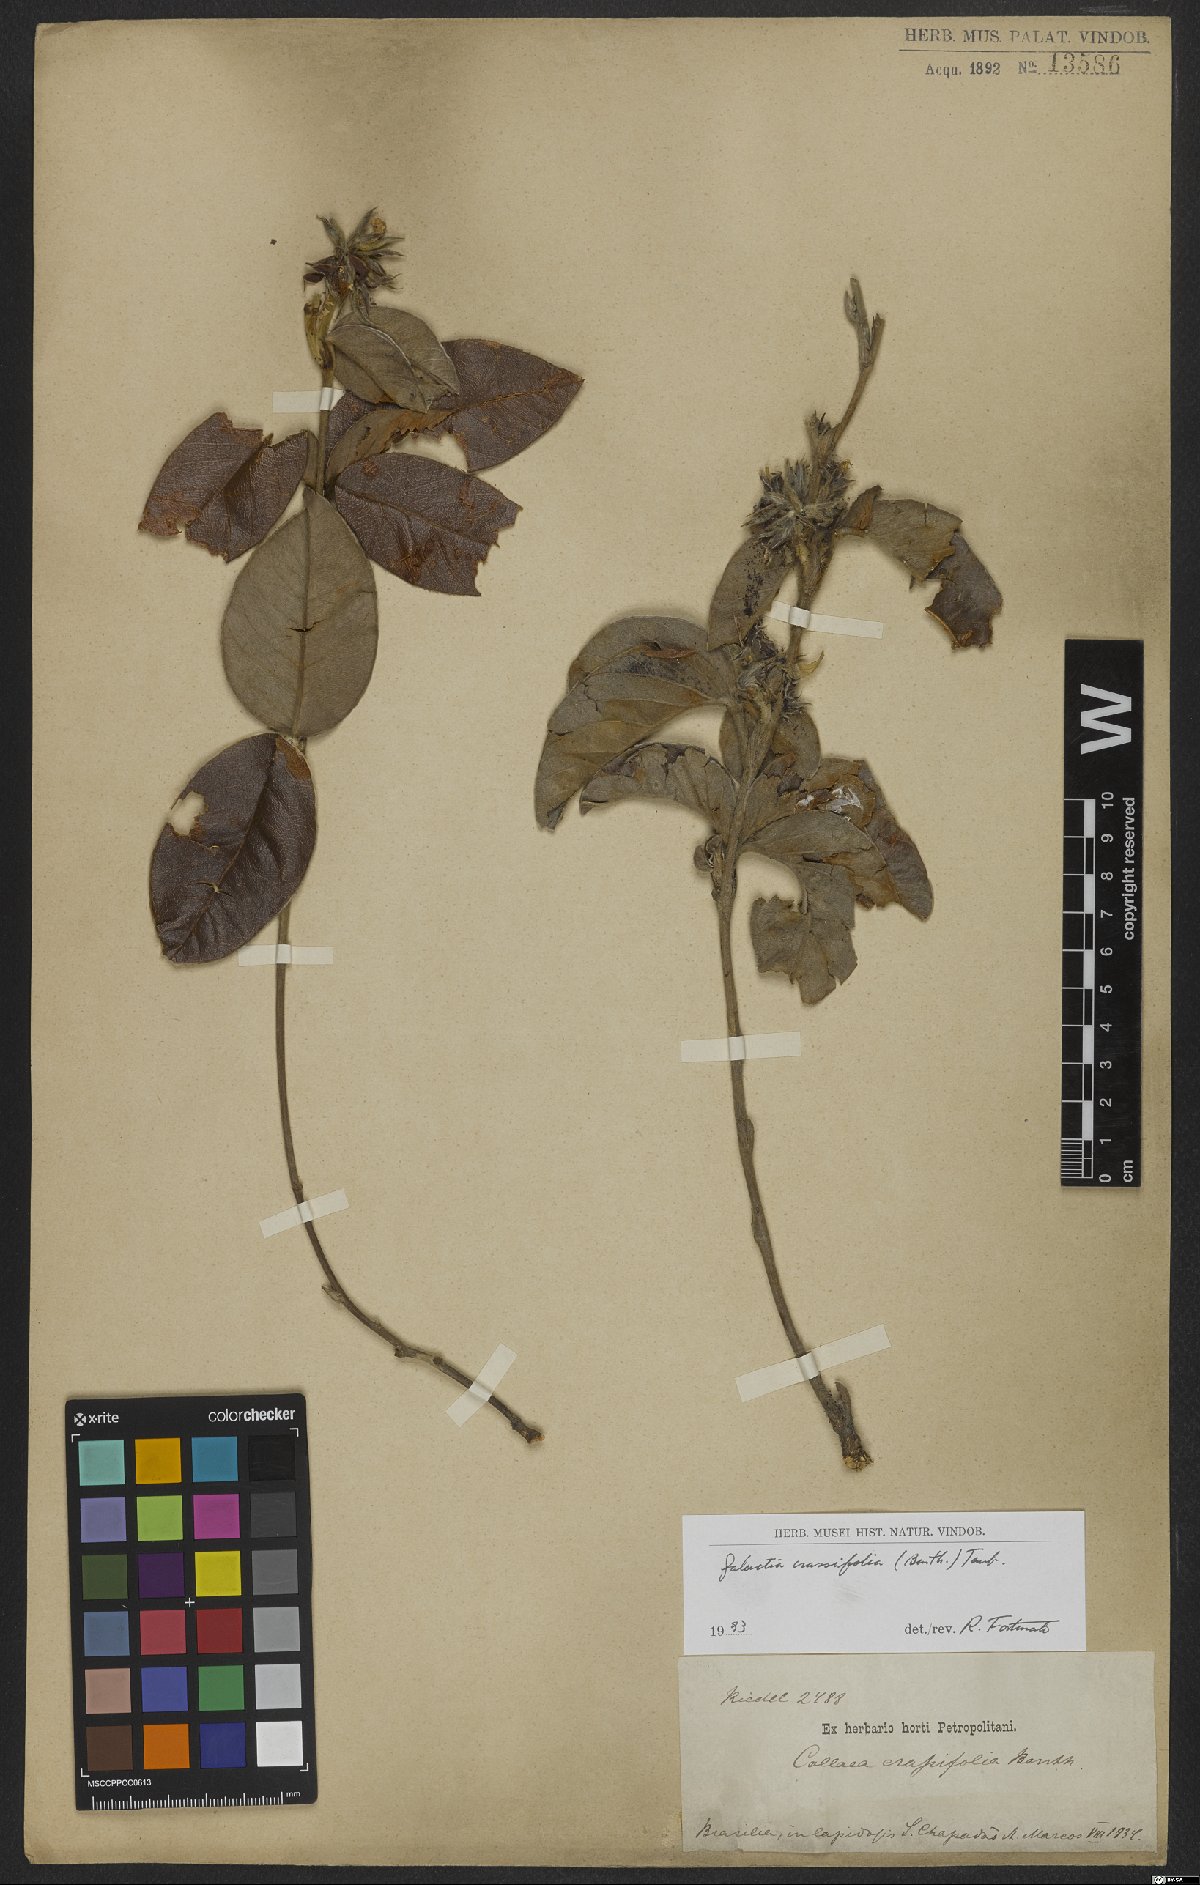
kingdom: Plantae
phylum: Tracheophyta
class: Magnoliopsida
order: Fabales
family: Fabaceae
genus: Betencourtia
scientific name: Betencourtia crassifolia
